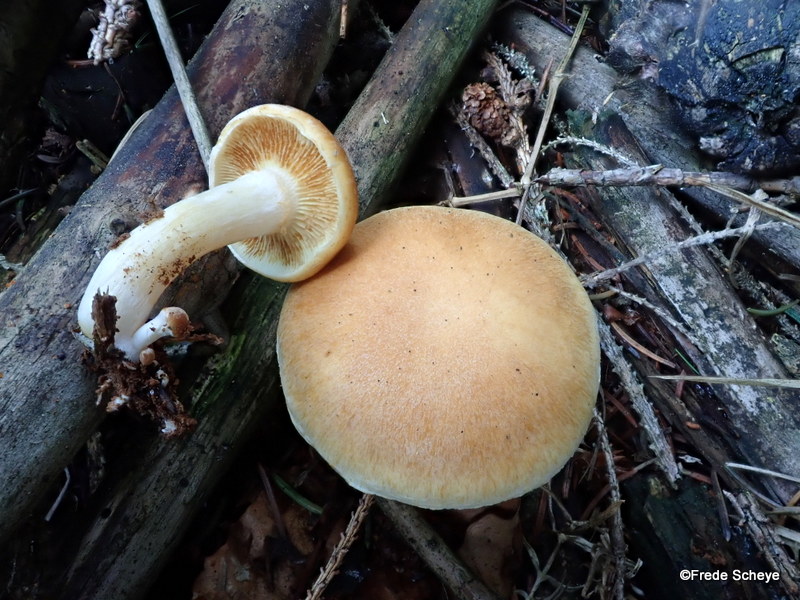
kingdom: Fungi
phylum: Basidiomycota
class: Agaricomycetes
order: Agaricales
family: Hymenogastraceae
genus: Gymnopilus
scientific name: Gymnopilus penetrans
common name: plettet flammehat
